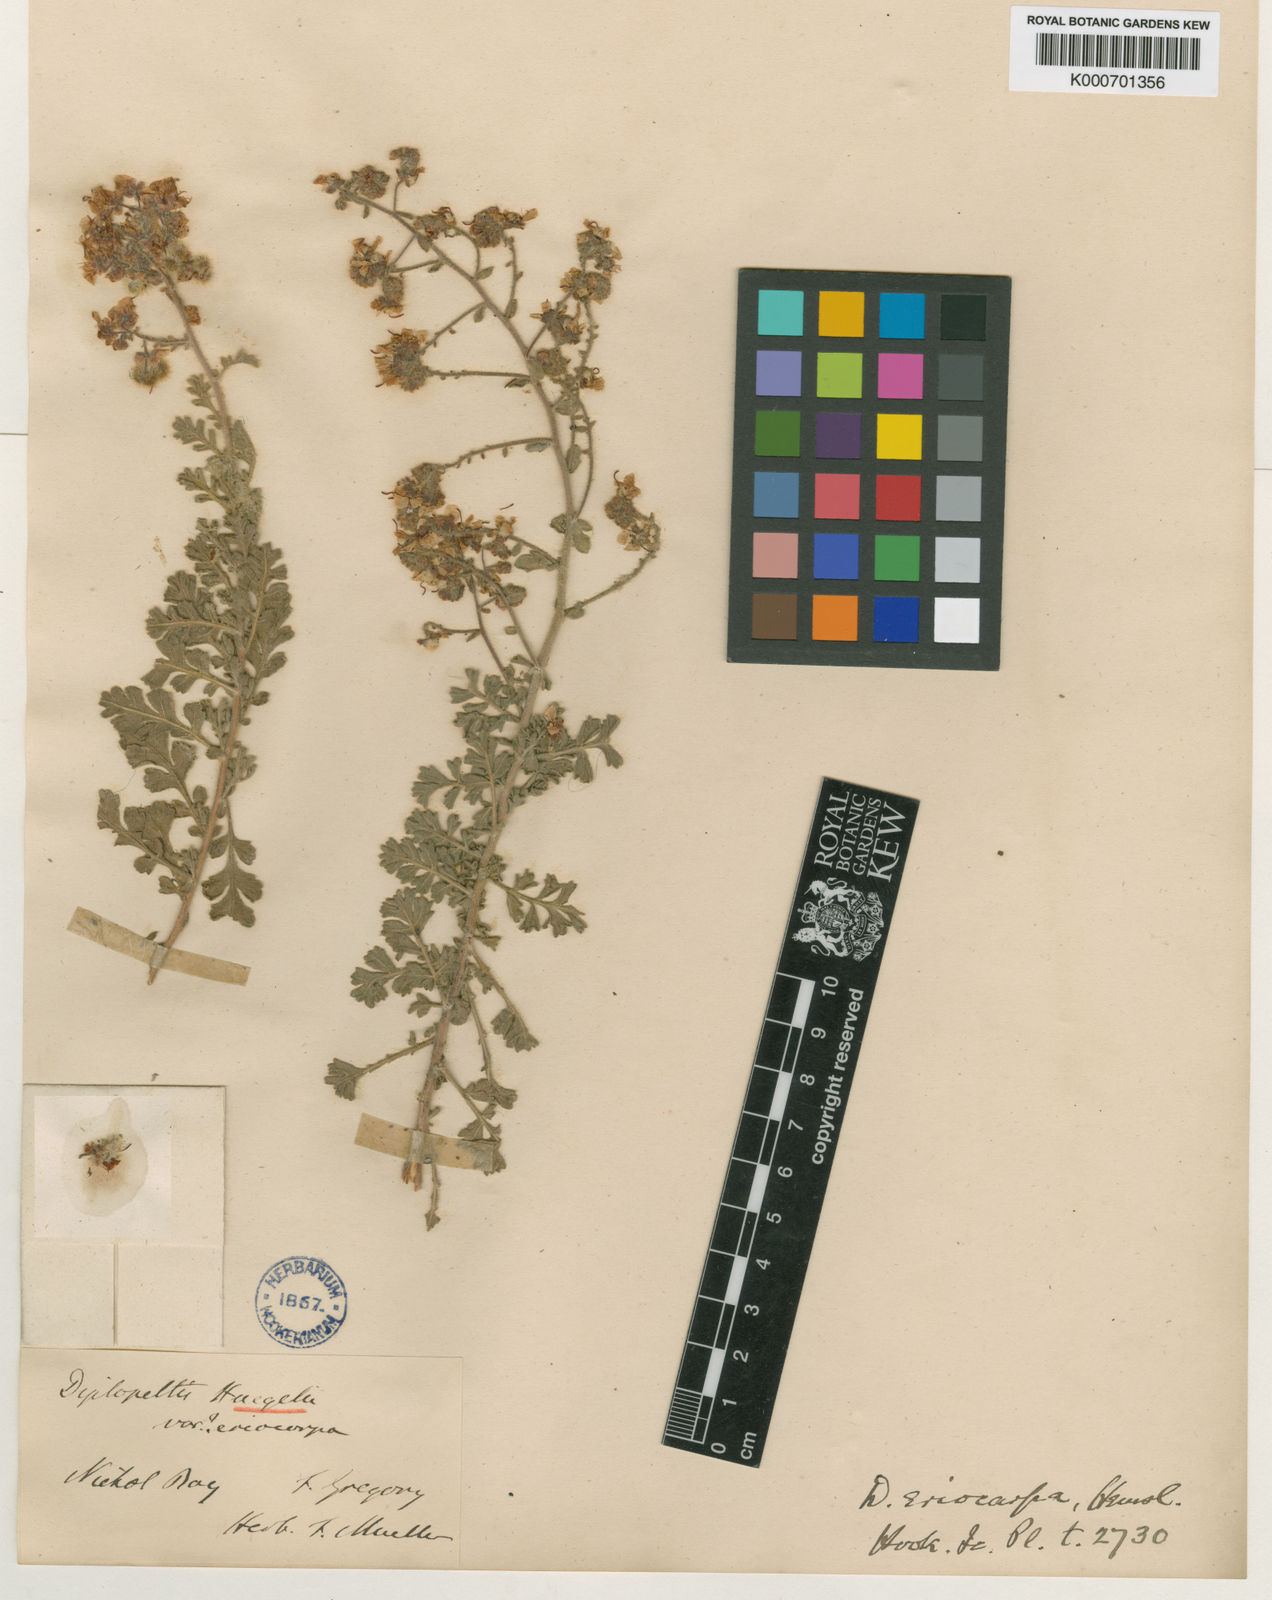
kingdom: Plantae
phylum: Tracheophyta
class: Magnoliopsida
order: Sapindales
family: Sapindaceae
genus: Diplopeltis
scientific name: Diplopeltis eriocarpa
